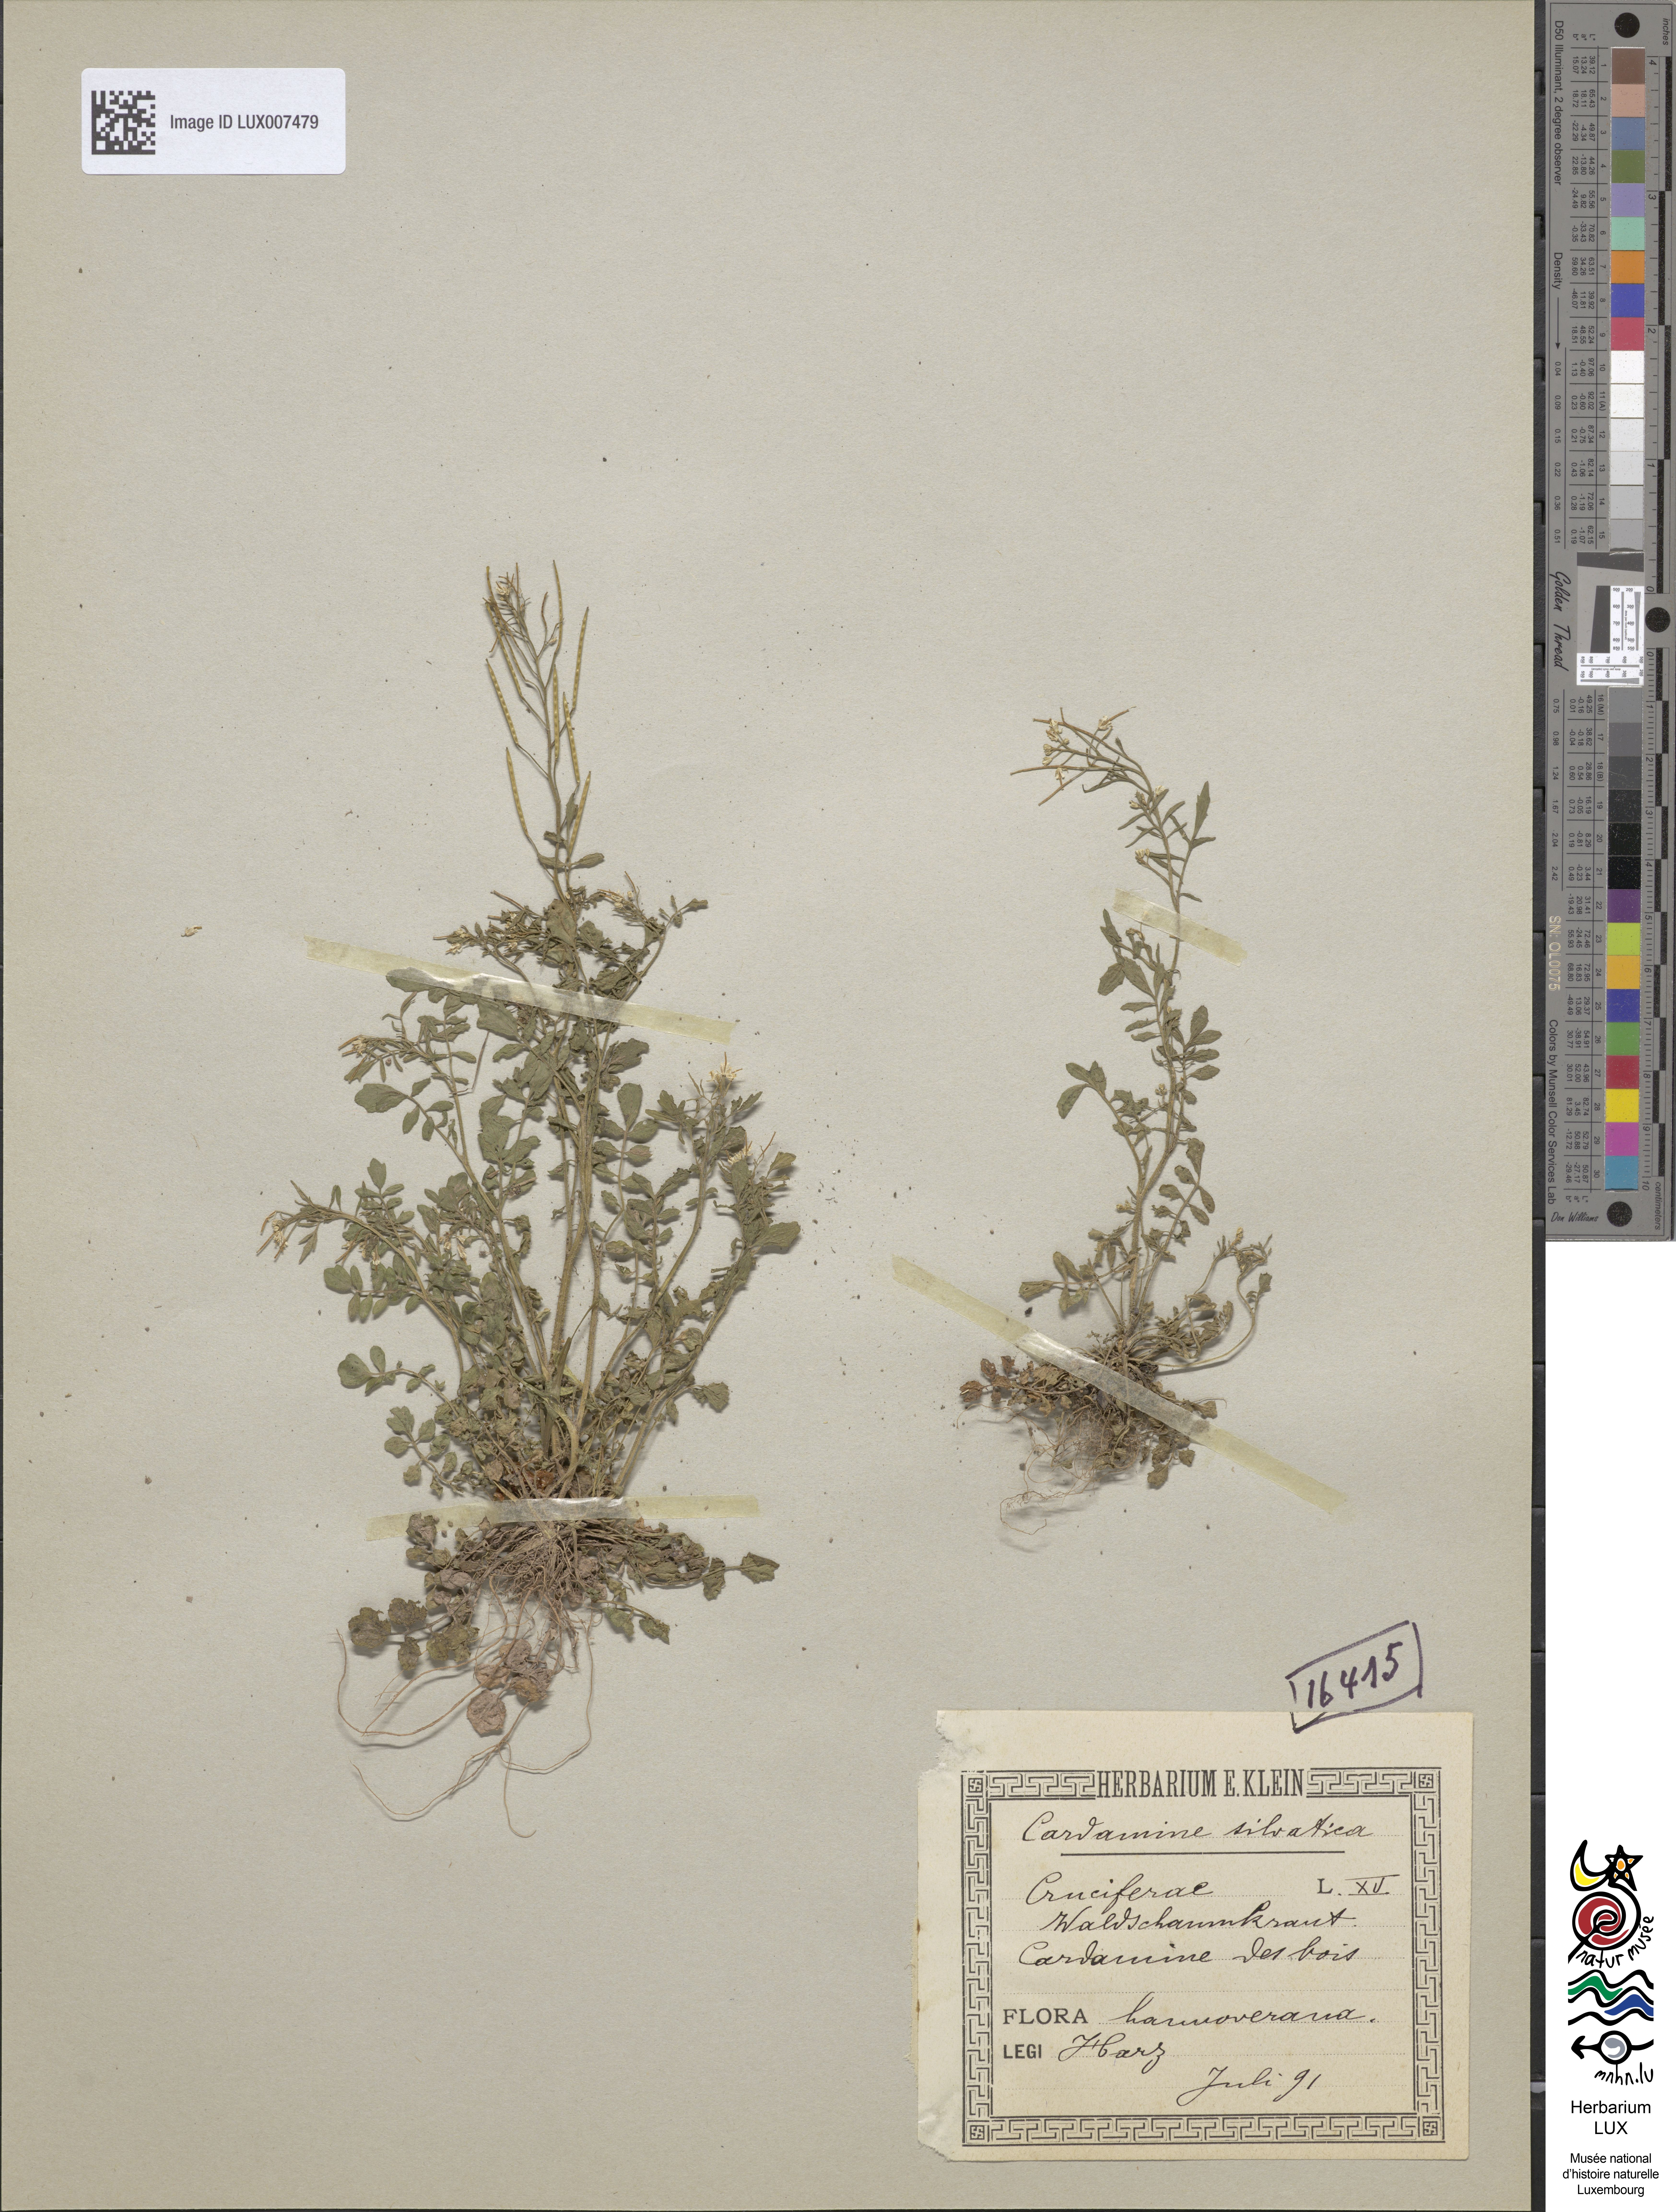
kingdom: Plantae
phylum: Tracheophyta
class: Magnoliopsida
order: Brassicales
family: Brassicaceae
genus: Cardamine
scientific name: Cardamine flexuosa
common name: Woodland bittercress
